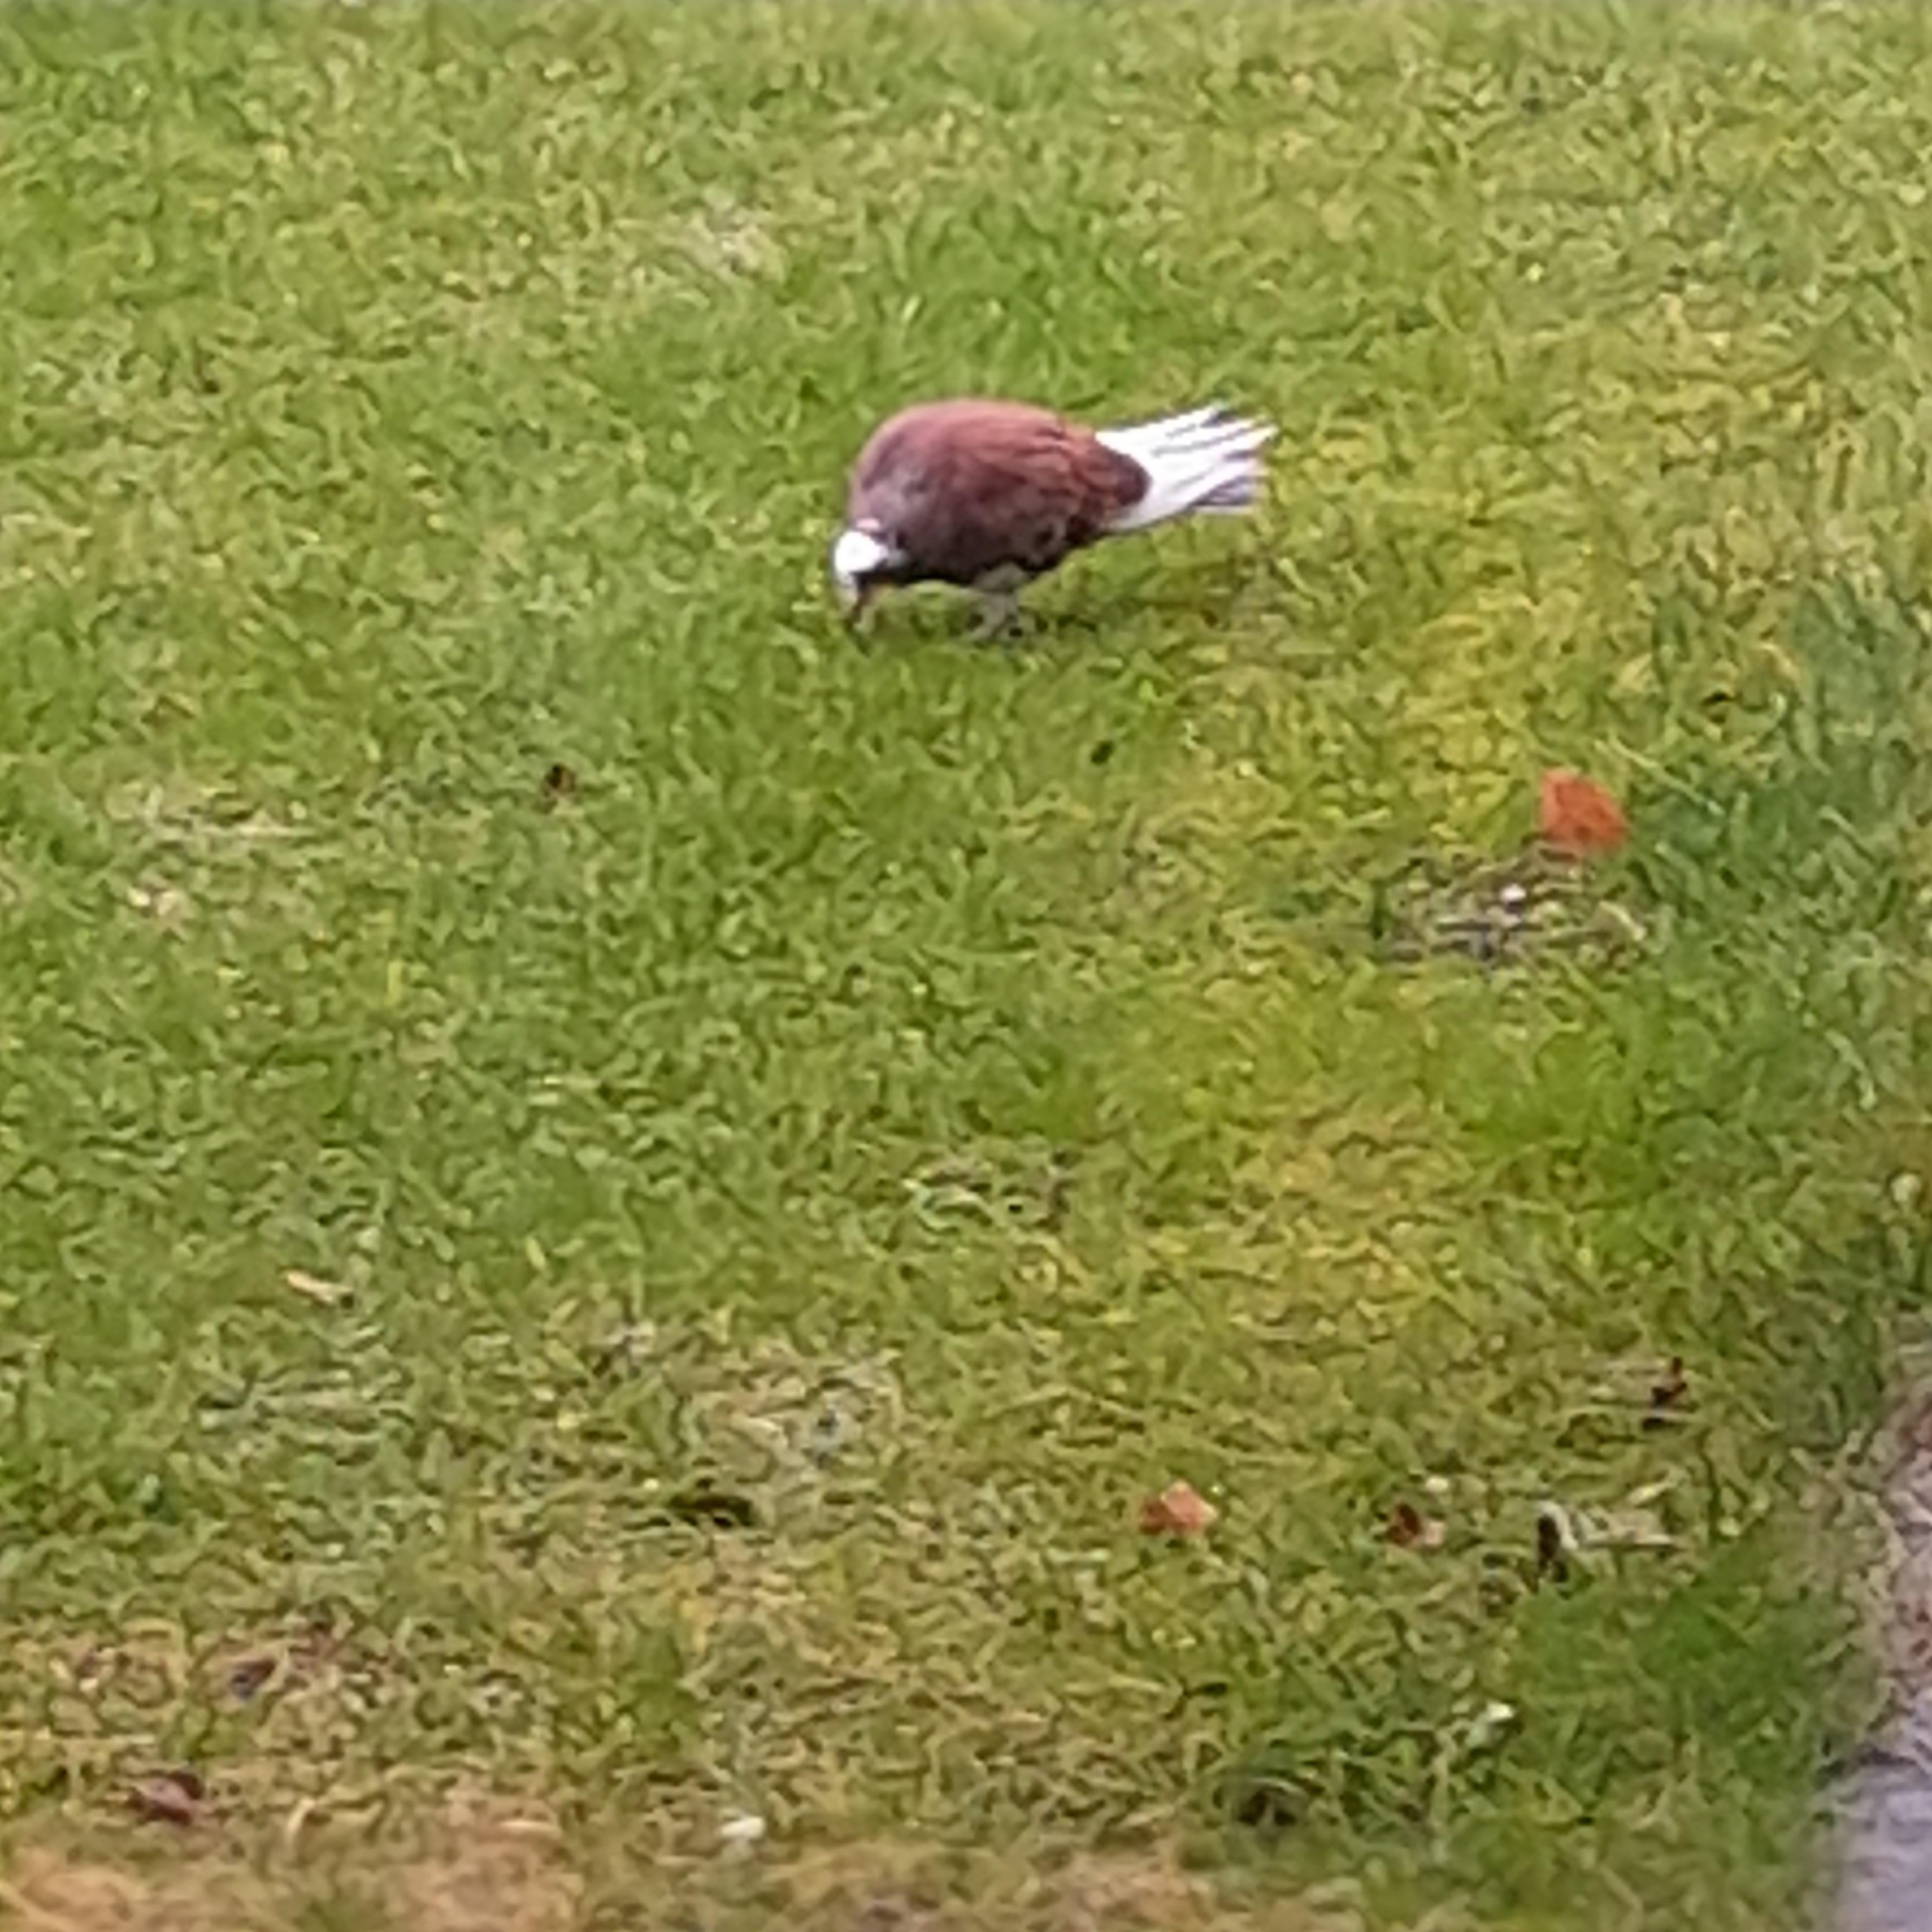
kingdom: Animalia
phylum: Chordata
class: Aves
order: Columbiformes
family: Columbidae
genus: Columba
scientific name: Columba livia
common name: Tamdue
